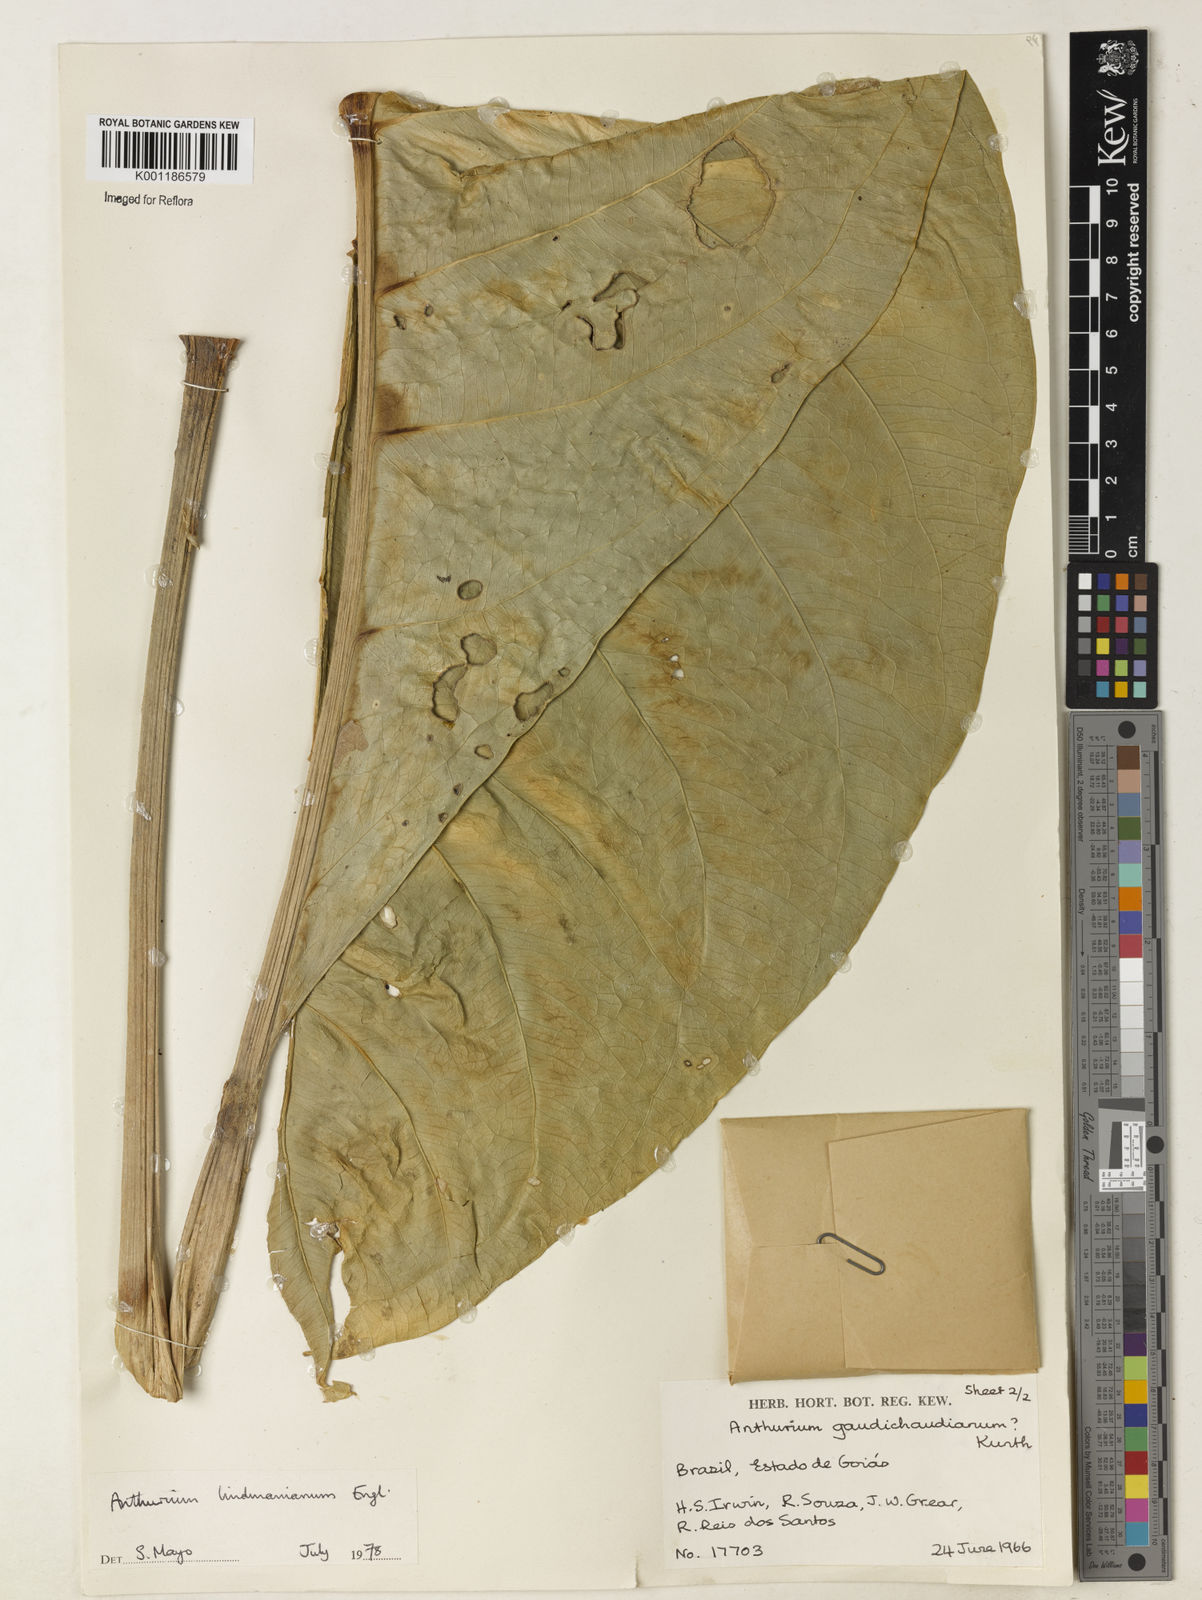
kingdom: Plantae
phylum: Tracheophyta
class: Liliopsida
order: Alismatales
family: Araceae
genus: Anthurium
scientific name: Anthurium lindmanianum
